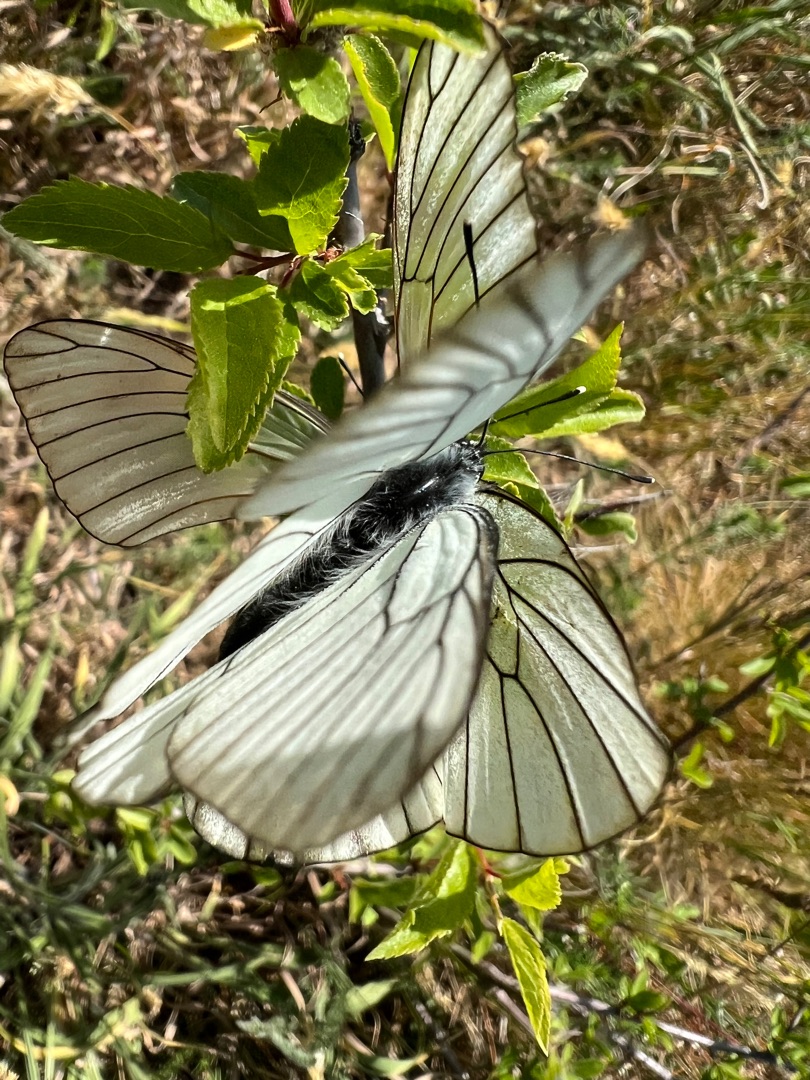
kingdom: Animalia
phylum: Arthropoda
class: Insecta
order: Lepidoptera
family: Pieridae
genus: Aporia
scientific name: Aporia crataegi
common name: Sortåret hvidvinge
